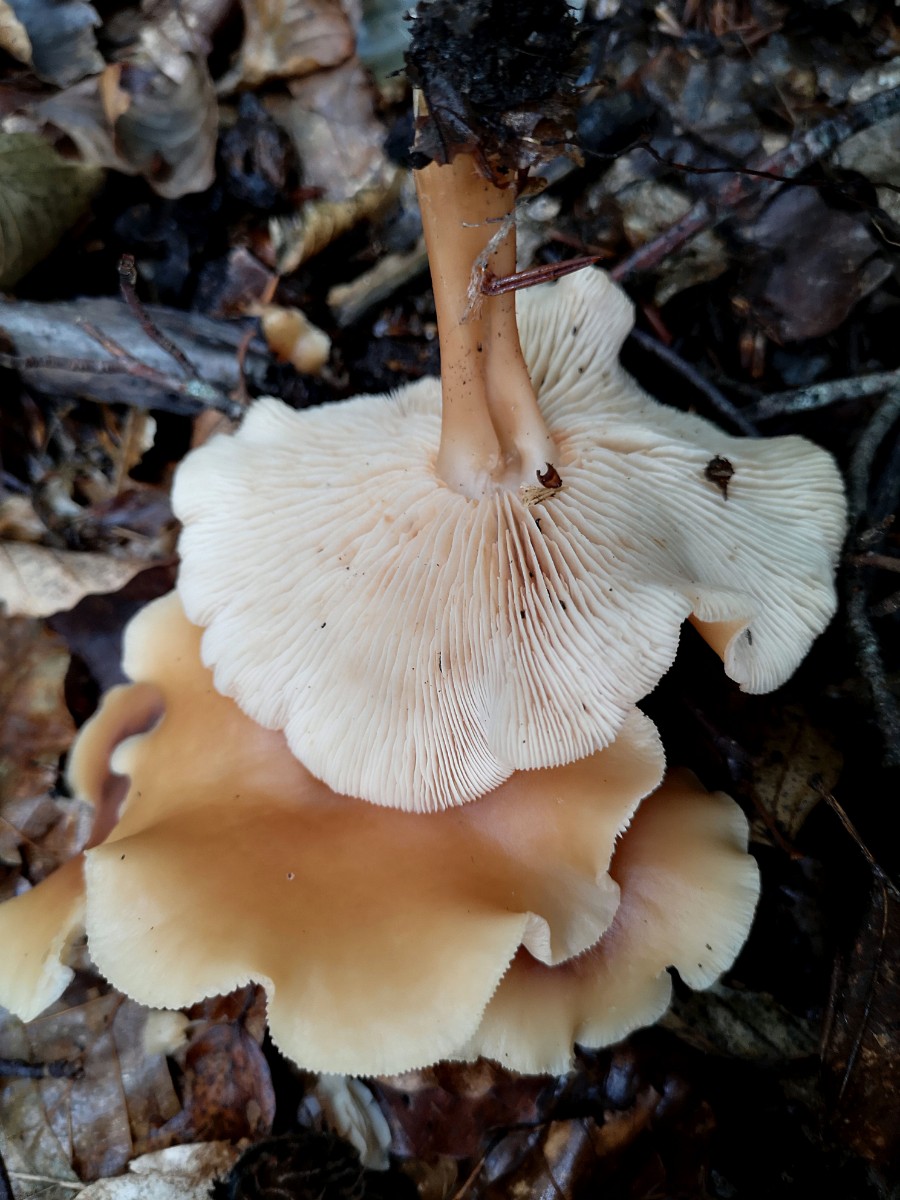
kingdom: Fungi
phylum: Basidiomycota
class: Agaricomycetes
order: Agaricales
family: Omphalotaceae
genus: Gymnopus
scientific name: Gymnopus
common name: fladhat
